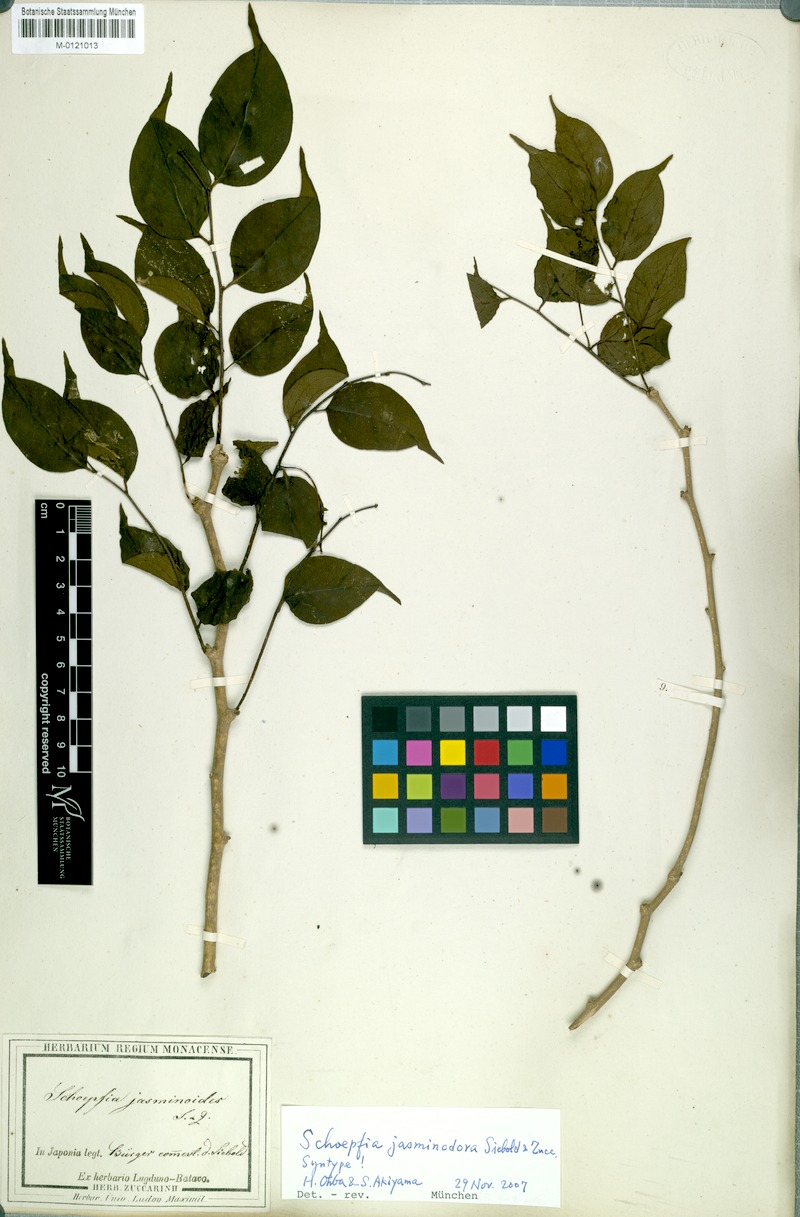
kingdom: Plantae
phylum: Tracheophyta
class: Magnoliopsida
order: Santalales
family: Schoepfiaceae
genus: Schoepfia
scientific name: Schoepfia jasminodora
